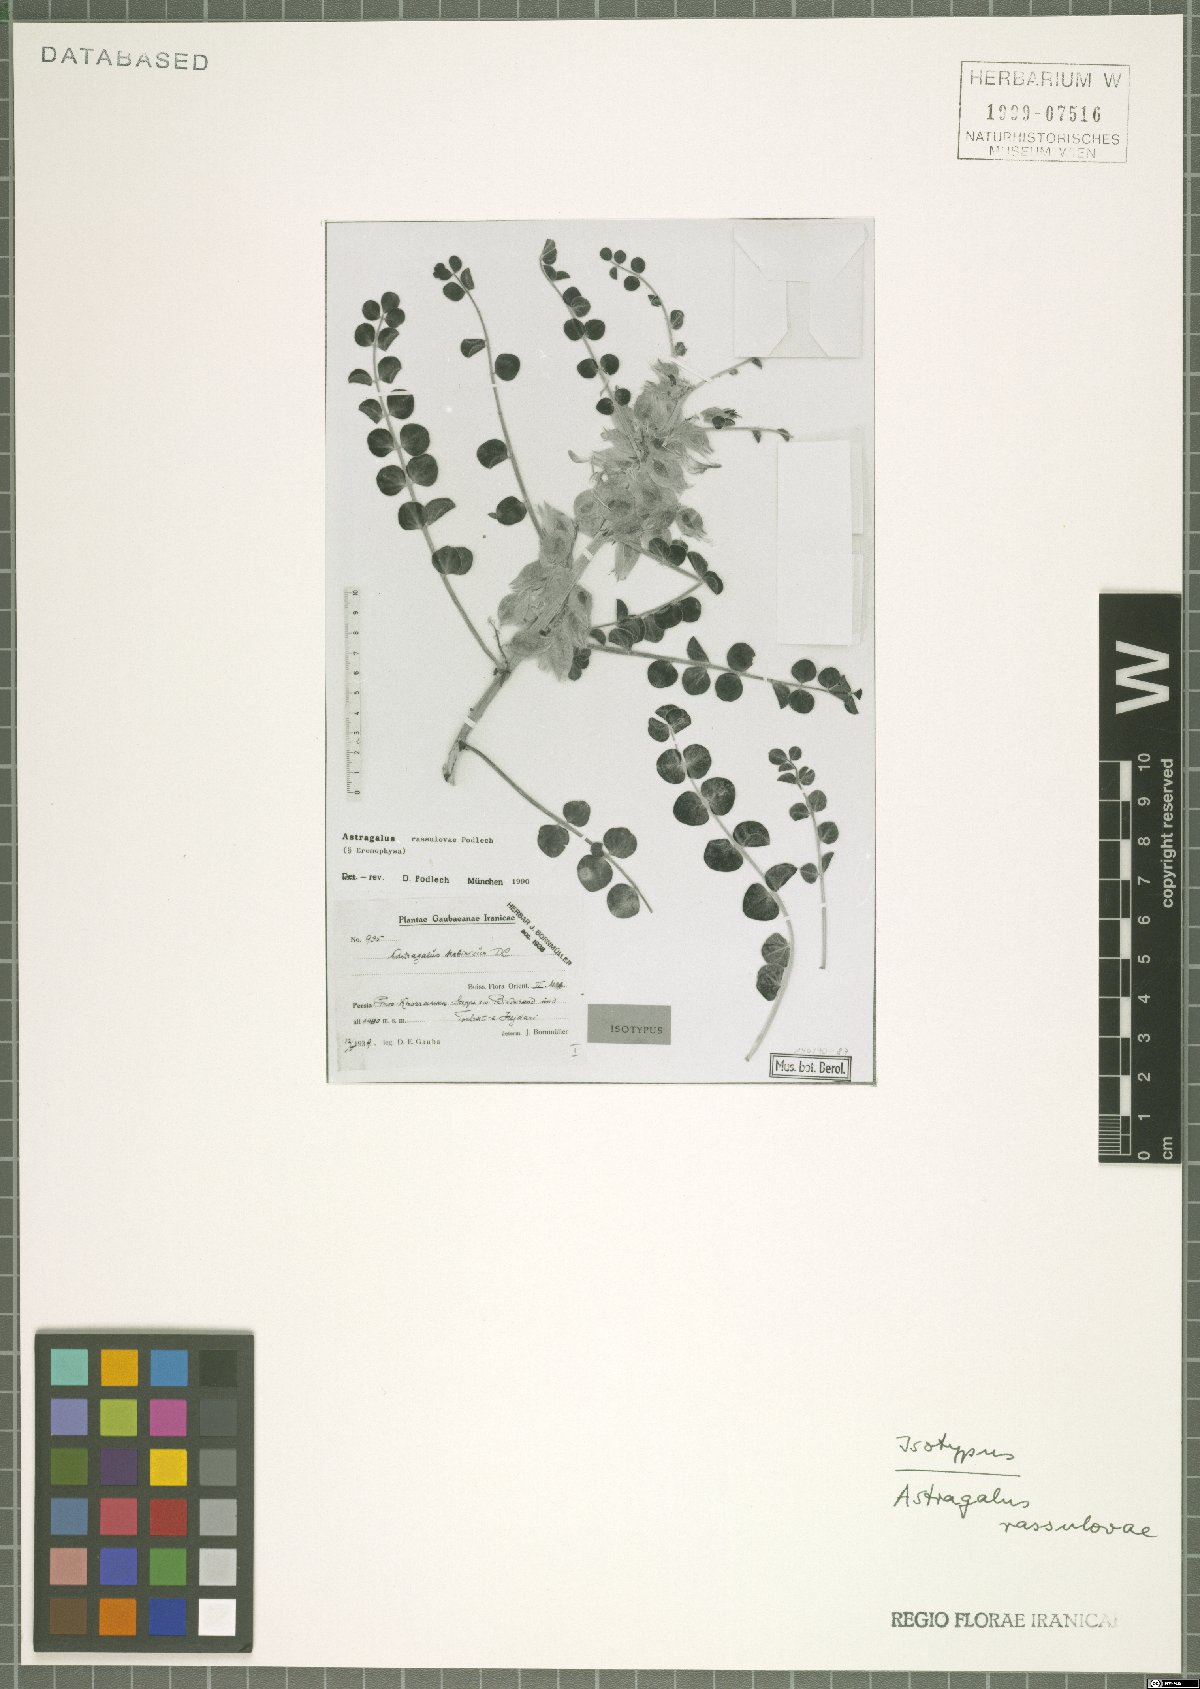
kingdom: Plantae
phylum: Tracheophyta
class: Magnoliopsida
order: Fabales
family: Fabaceae
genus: Astragalus
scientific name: Astragalus rassulovae
